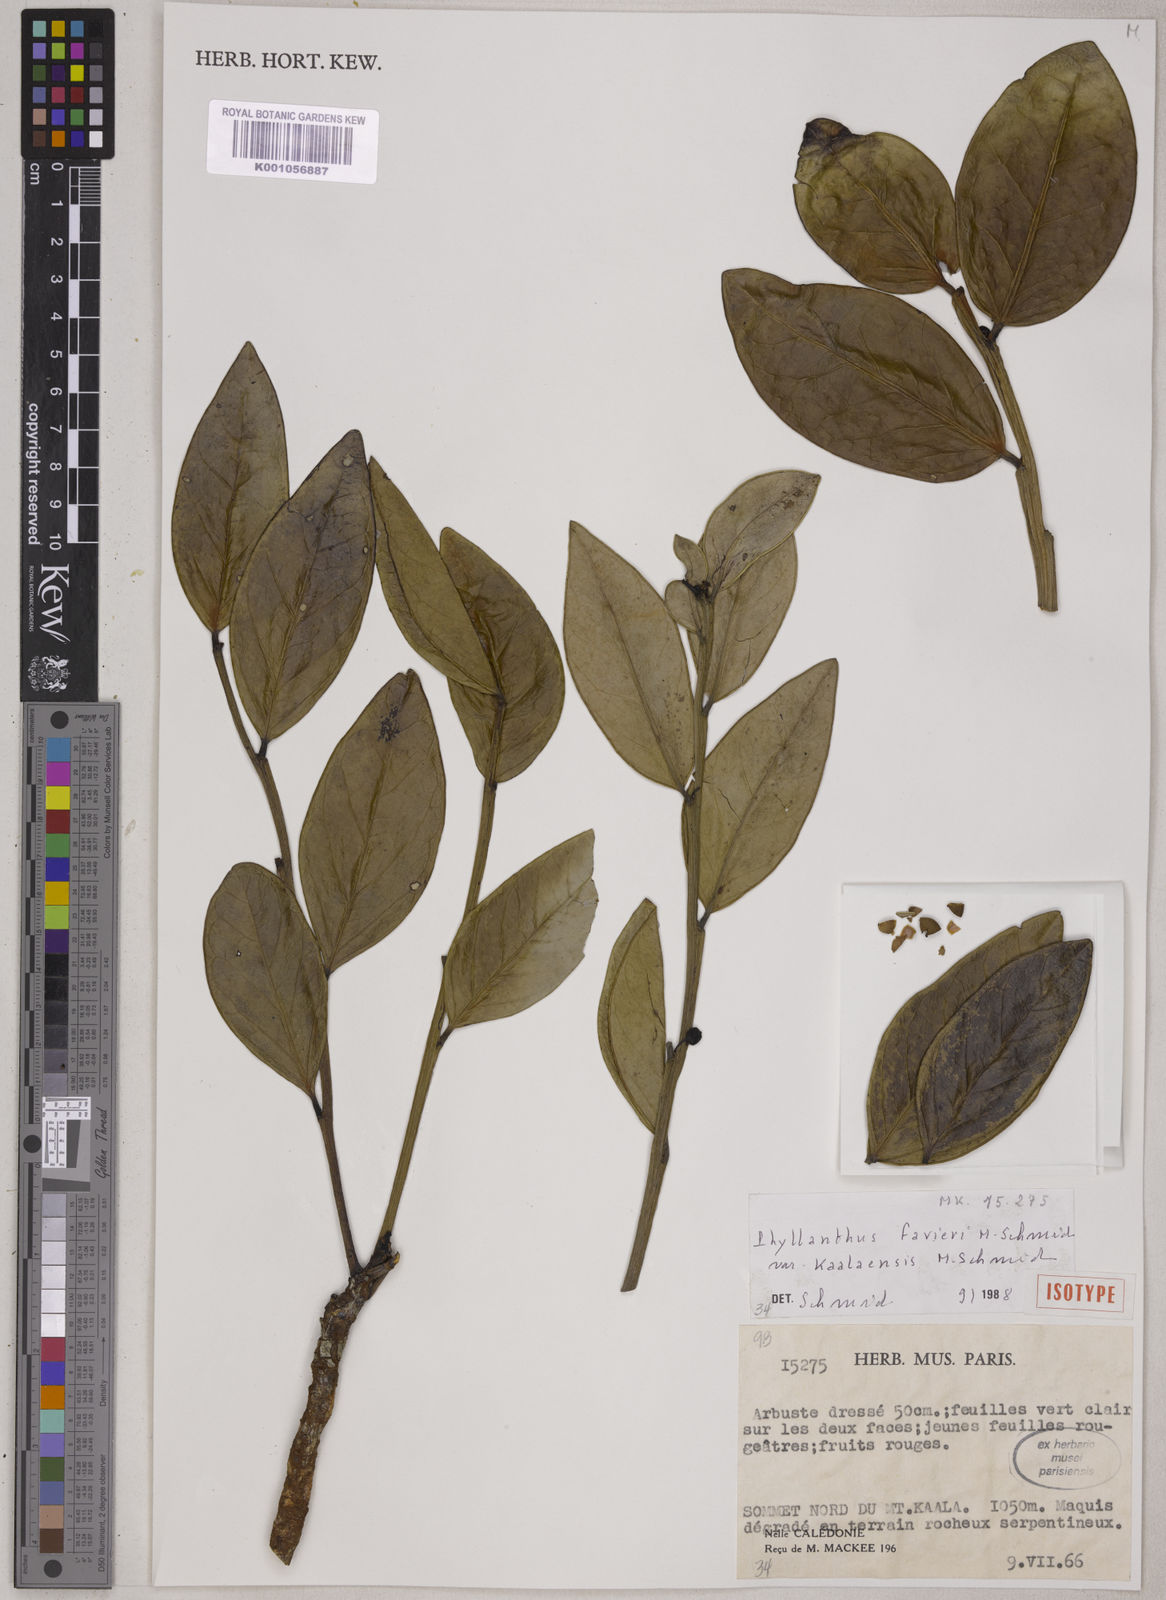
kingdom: Plantae
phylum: Tracheophyta
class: Magnoliopsida
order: Malpighiales
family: Phyllanthaceae
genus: Phyllanthus
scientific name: Phyllanthus favieri
